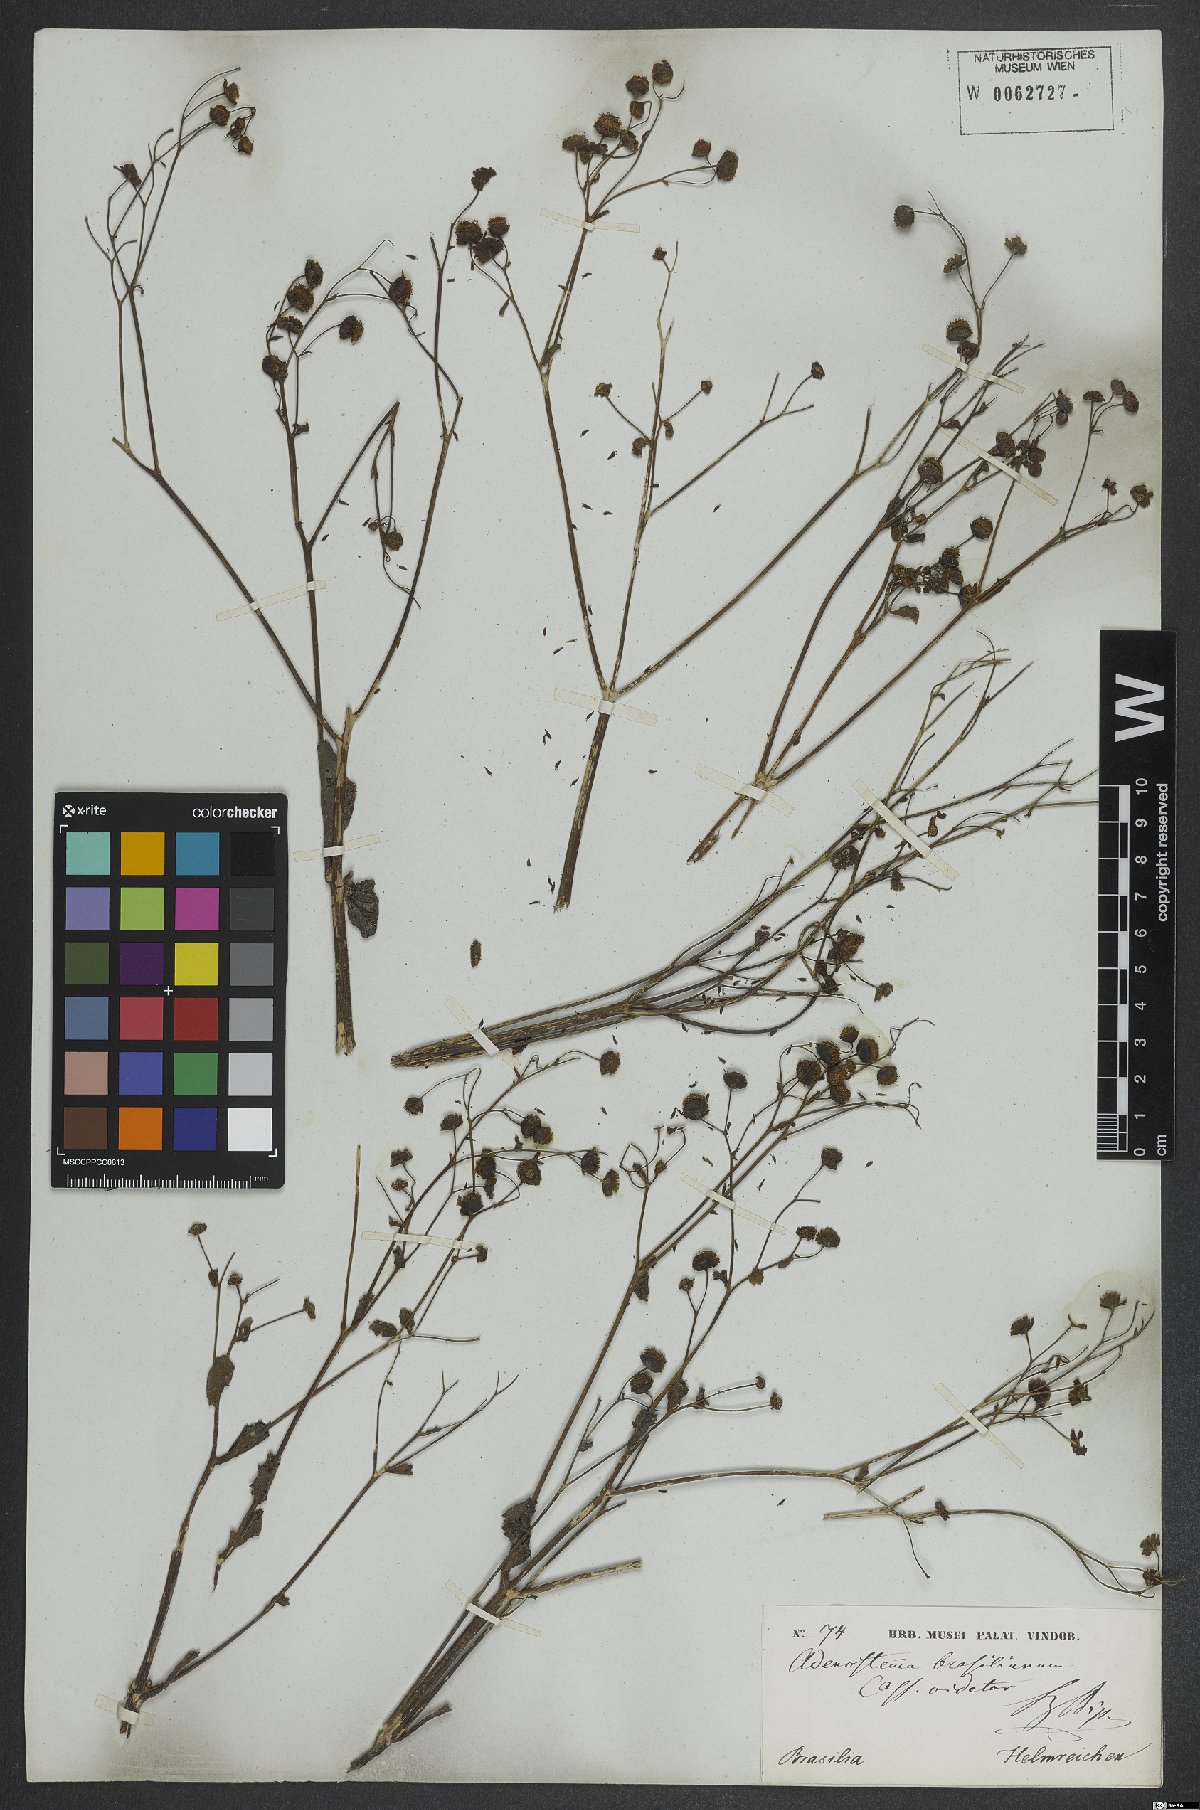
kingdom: Plantae
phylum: Tracheophyta
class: Magnoliopsida
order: Asterales
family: Asteraceae
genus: Adenostemma
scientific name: Adenostemma brasilianum
